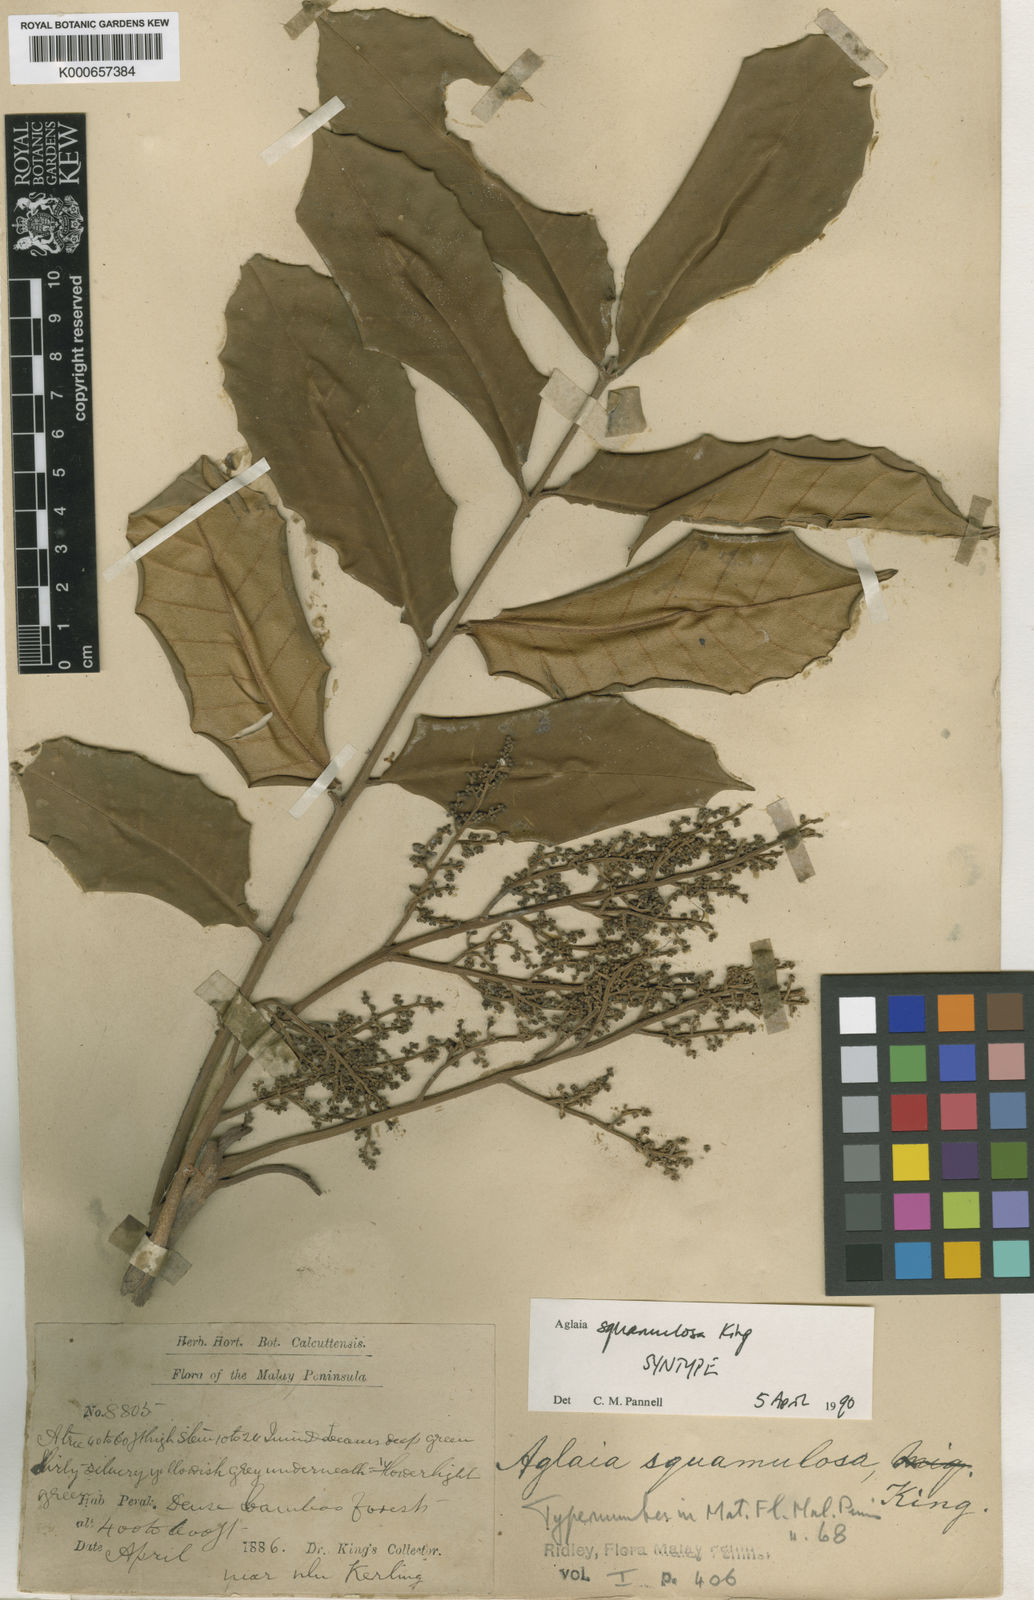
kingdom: Plantae
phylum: Tracheophyta
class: Magnoliopsida
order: Sapindales
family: Meliaceae
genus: Aglaia
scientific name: Aglaia squamulosa
